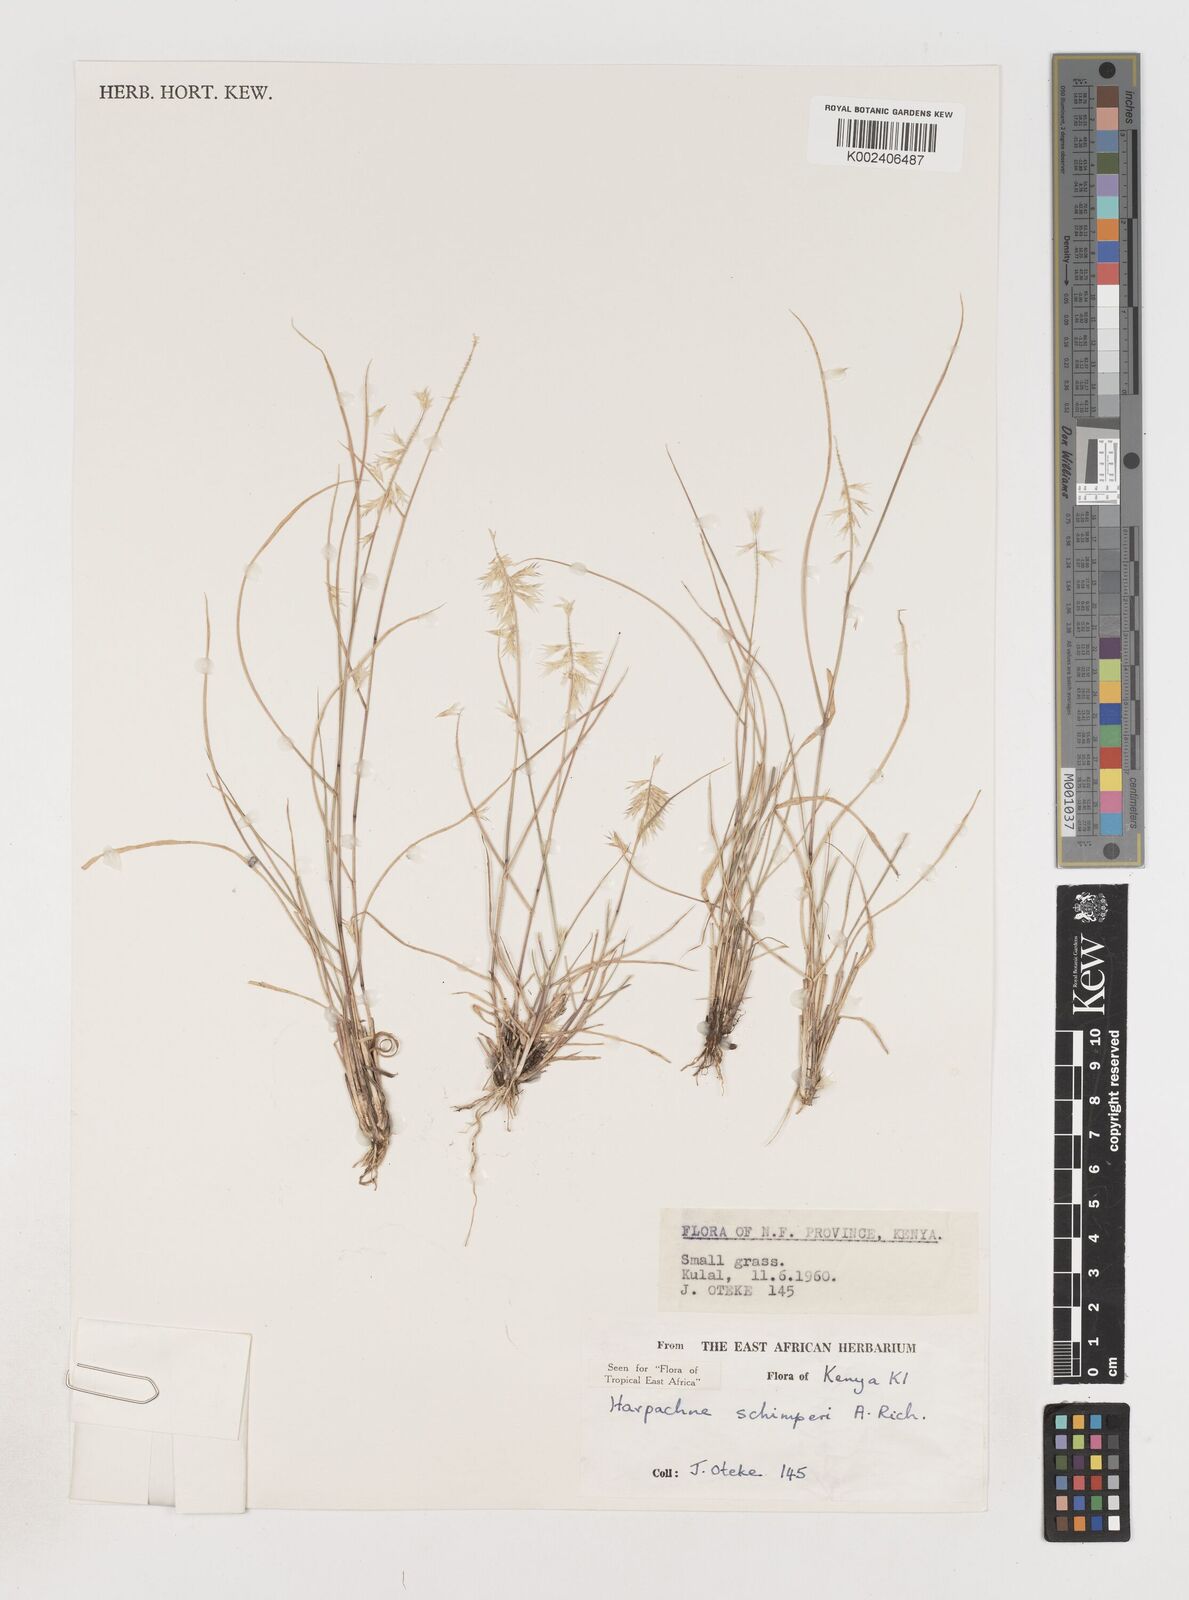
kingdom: Plantae
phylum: Tracheophyta
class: Liliopsida
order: Poales
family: Poaceae
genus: Harpachne
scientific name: Harpachne schimperi
